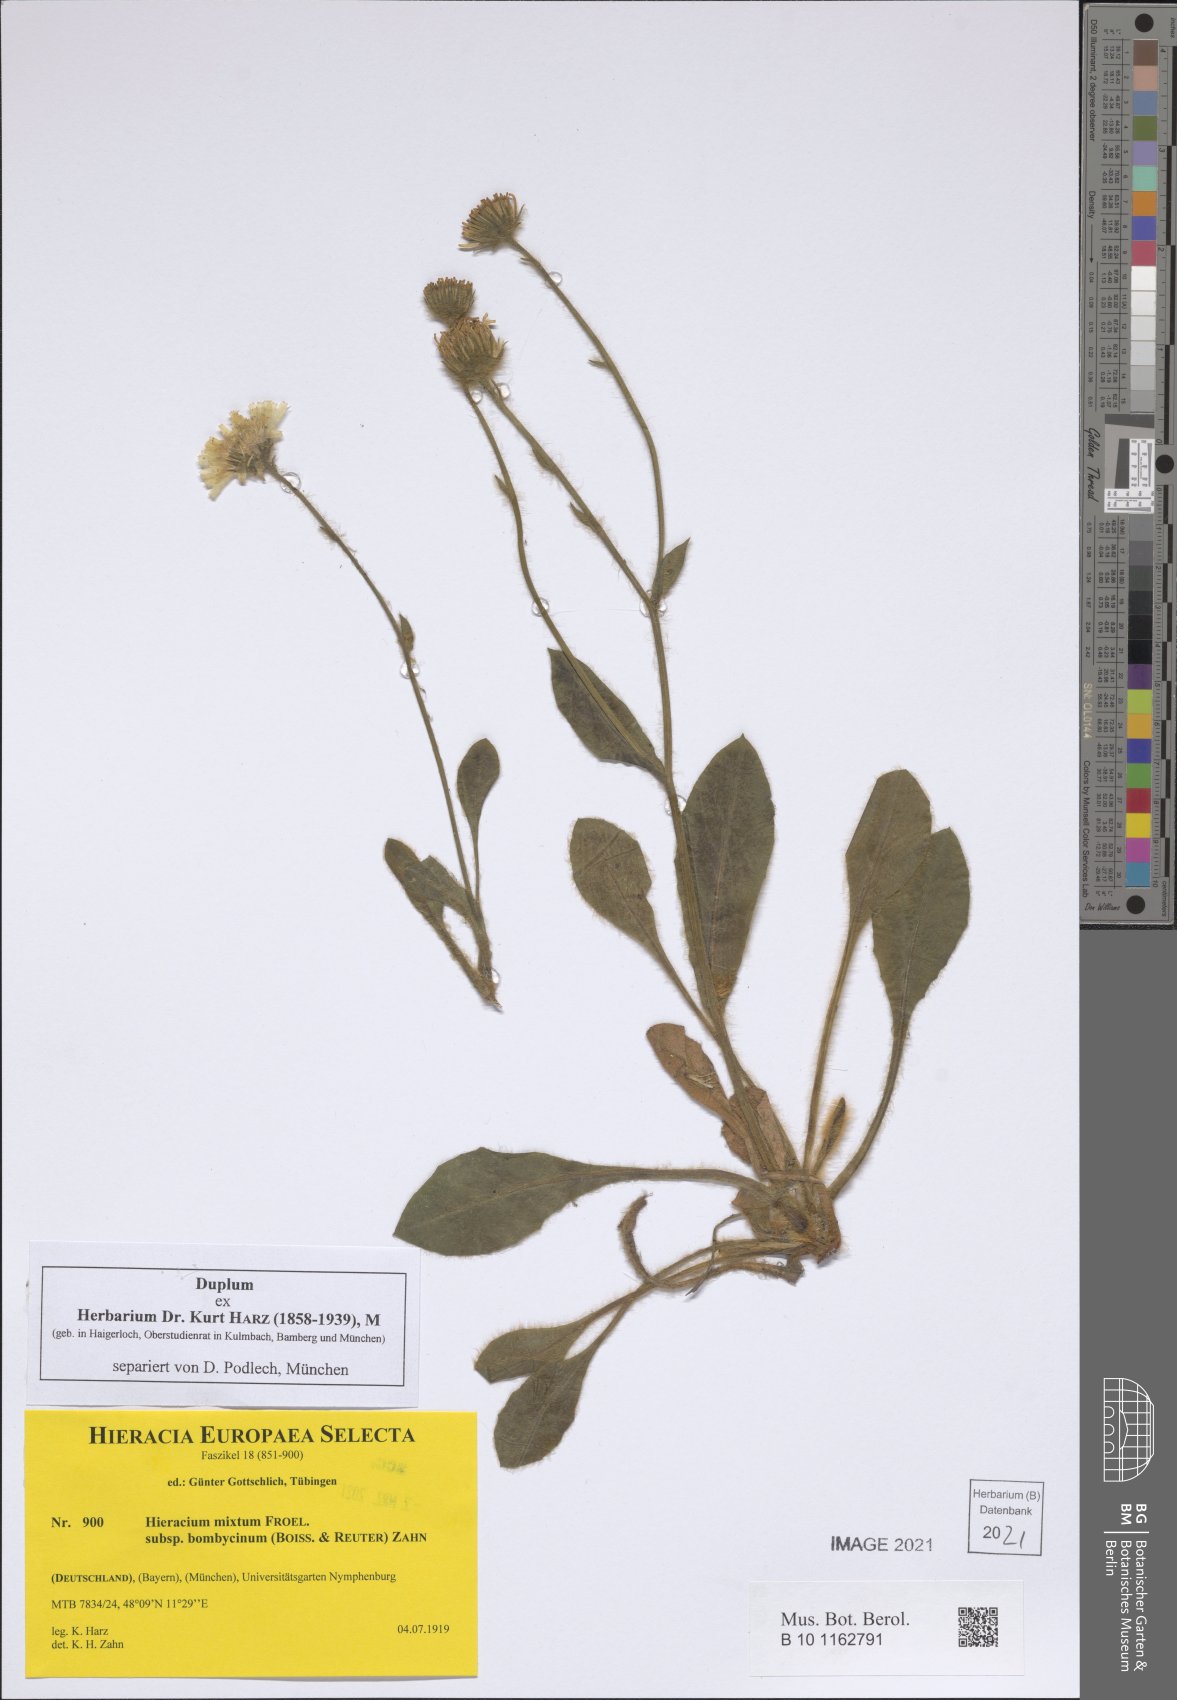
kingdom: Plantae
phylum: Tracheophyta
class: Magnoliopsida
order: Asterales
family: Asteraceae
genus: Hieracium
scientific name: Hieracium bombycinum
